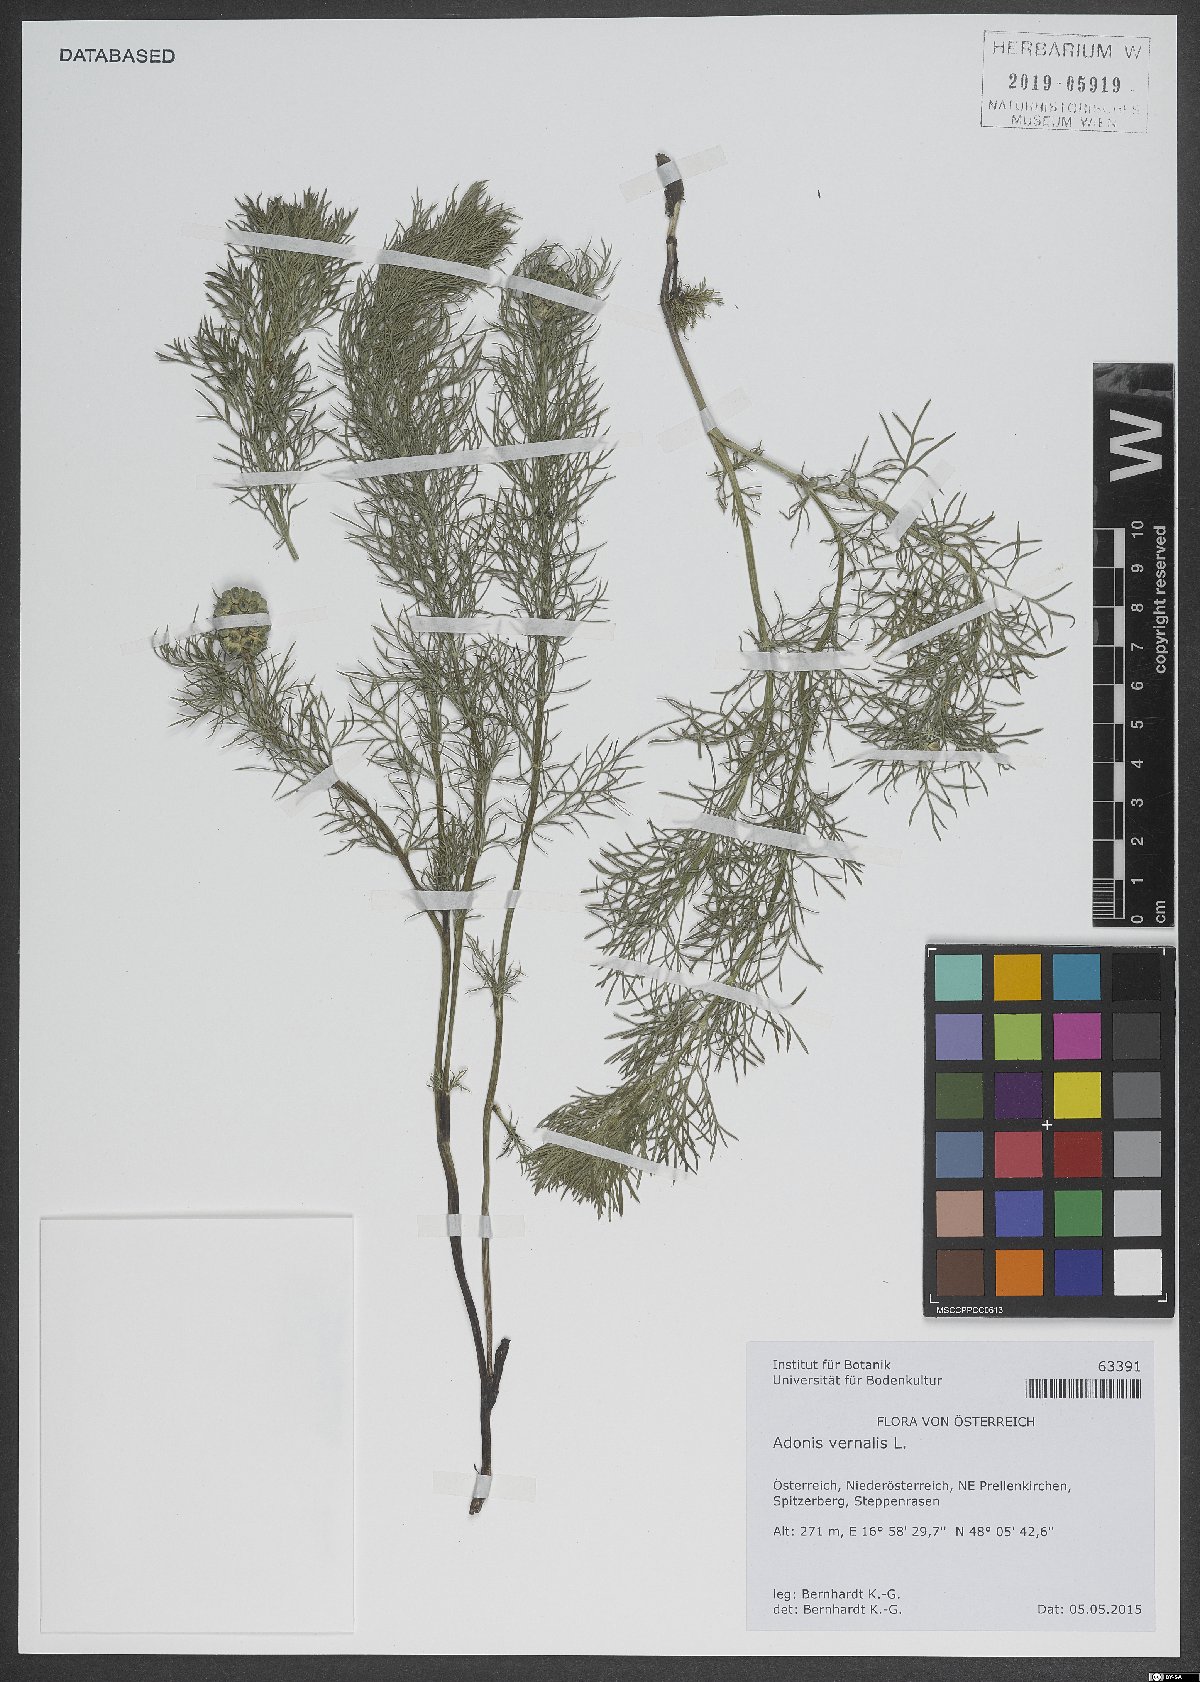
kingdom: Plantae
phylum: Tracheophyta
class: Magnoliopsida
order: Ranunculales
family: Ranunculaceae
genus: Adonis
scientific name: Adonis vernalis
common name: Yellow pheasants-eye
